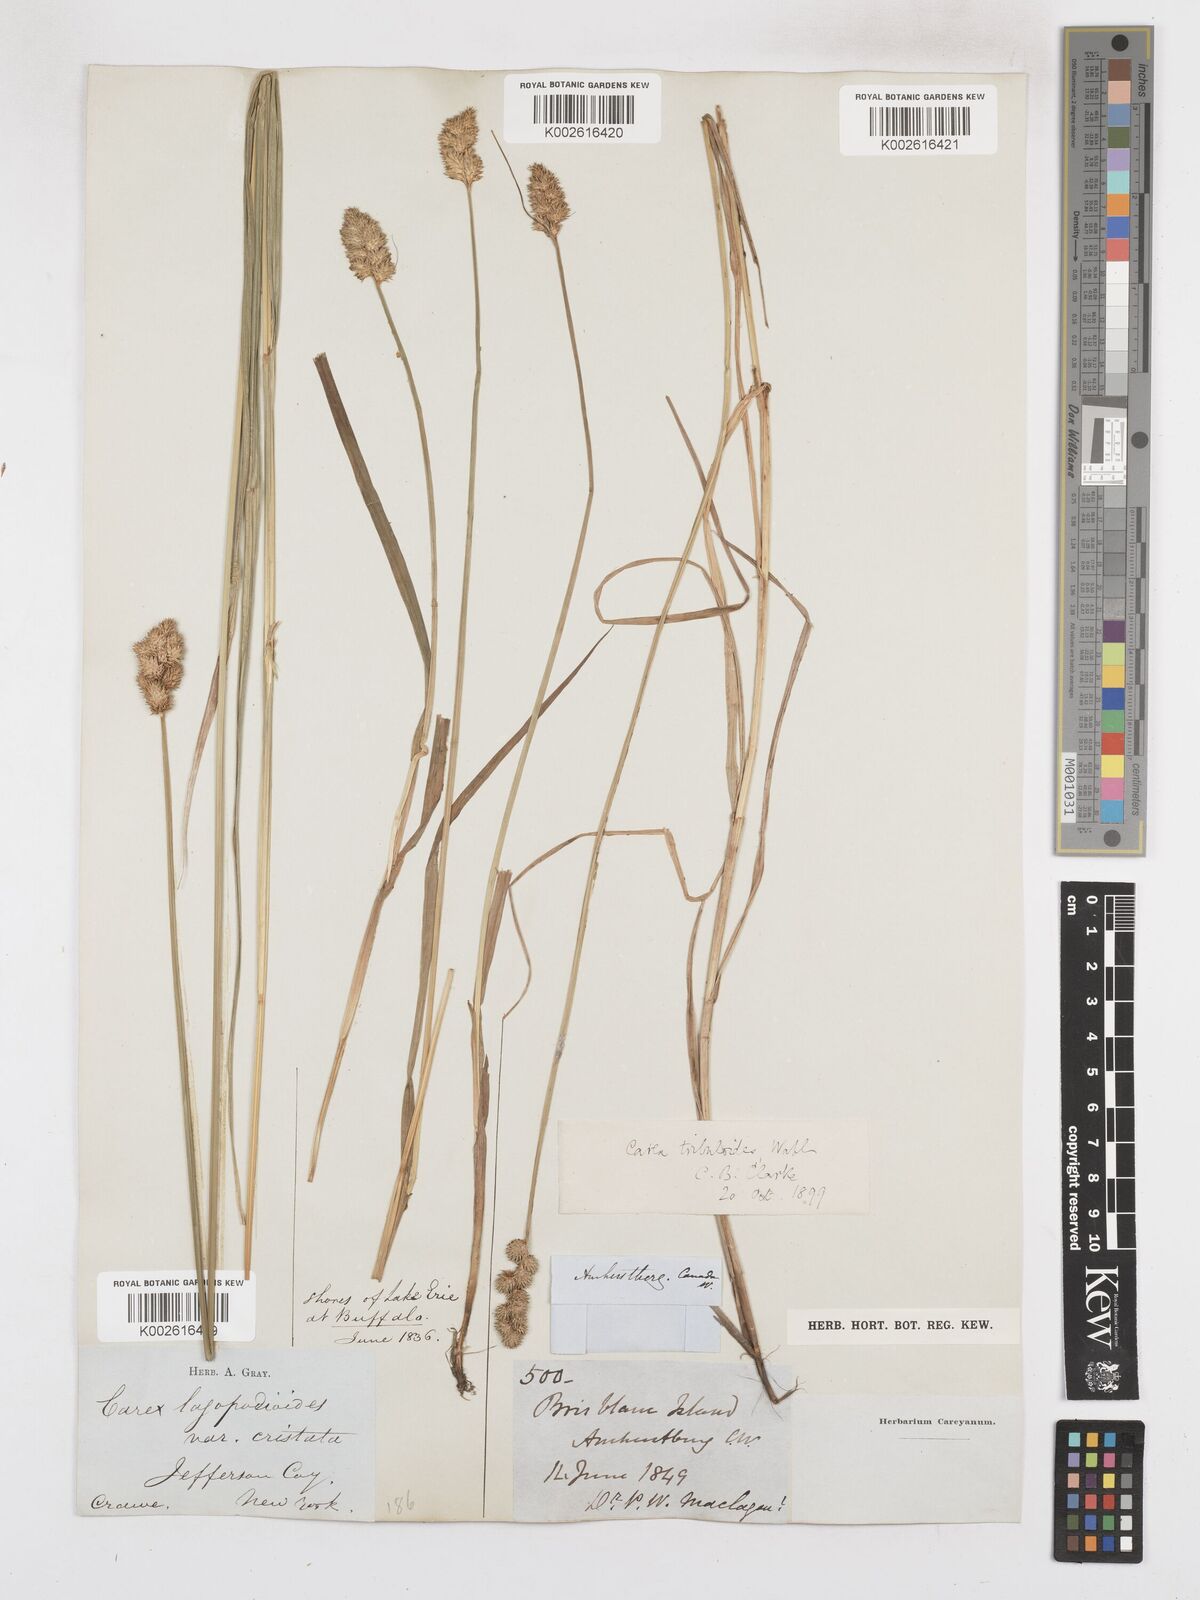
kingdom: Plantae
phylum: Tracheophyta
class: Liliopsida
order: Poales
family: Cyperaceae
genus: Carex
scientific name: Carex tribuloides
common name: Blunt broom sedge
